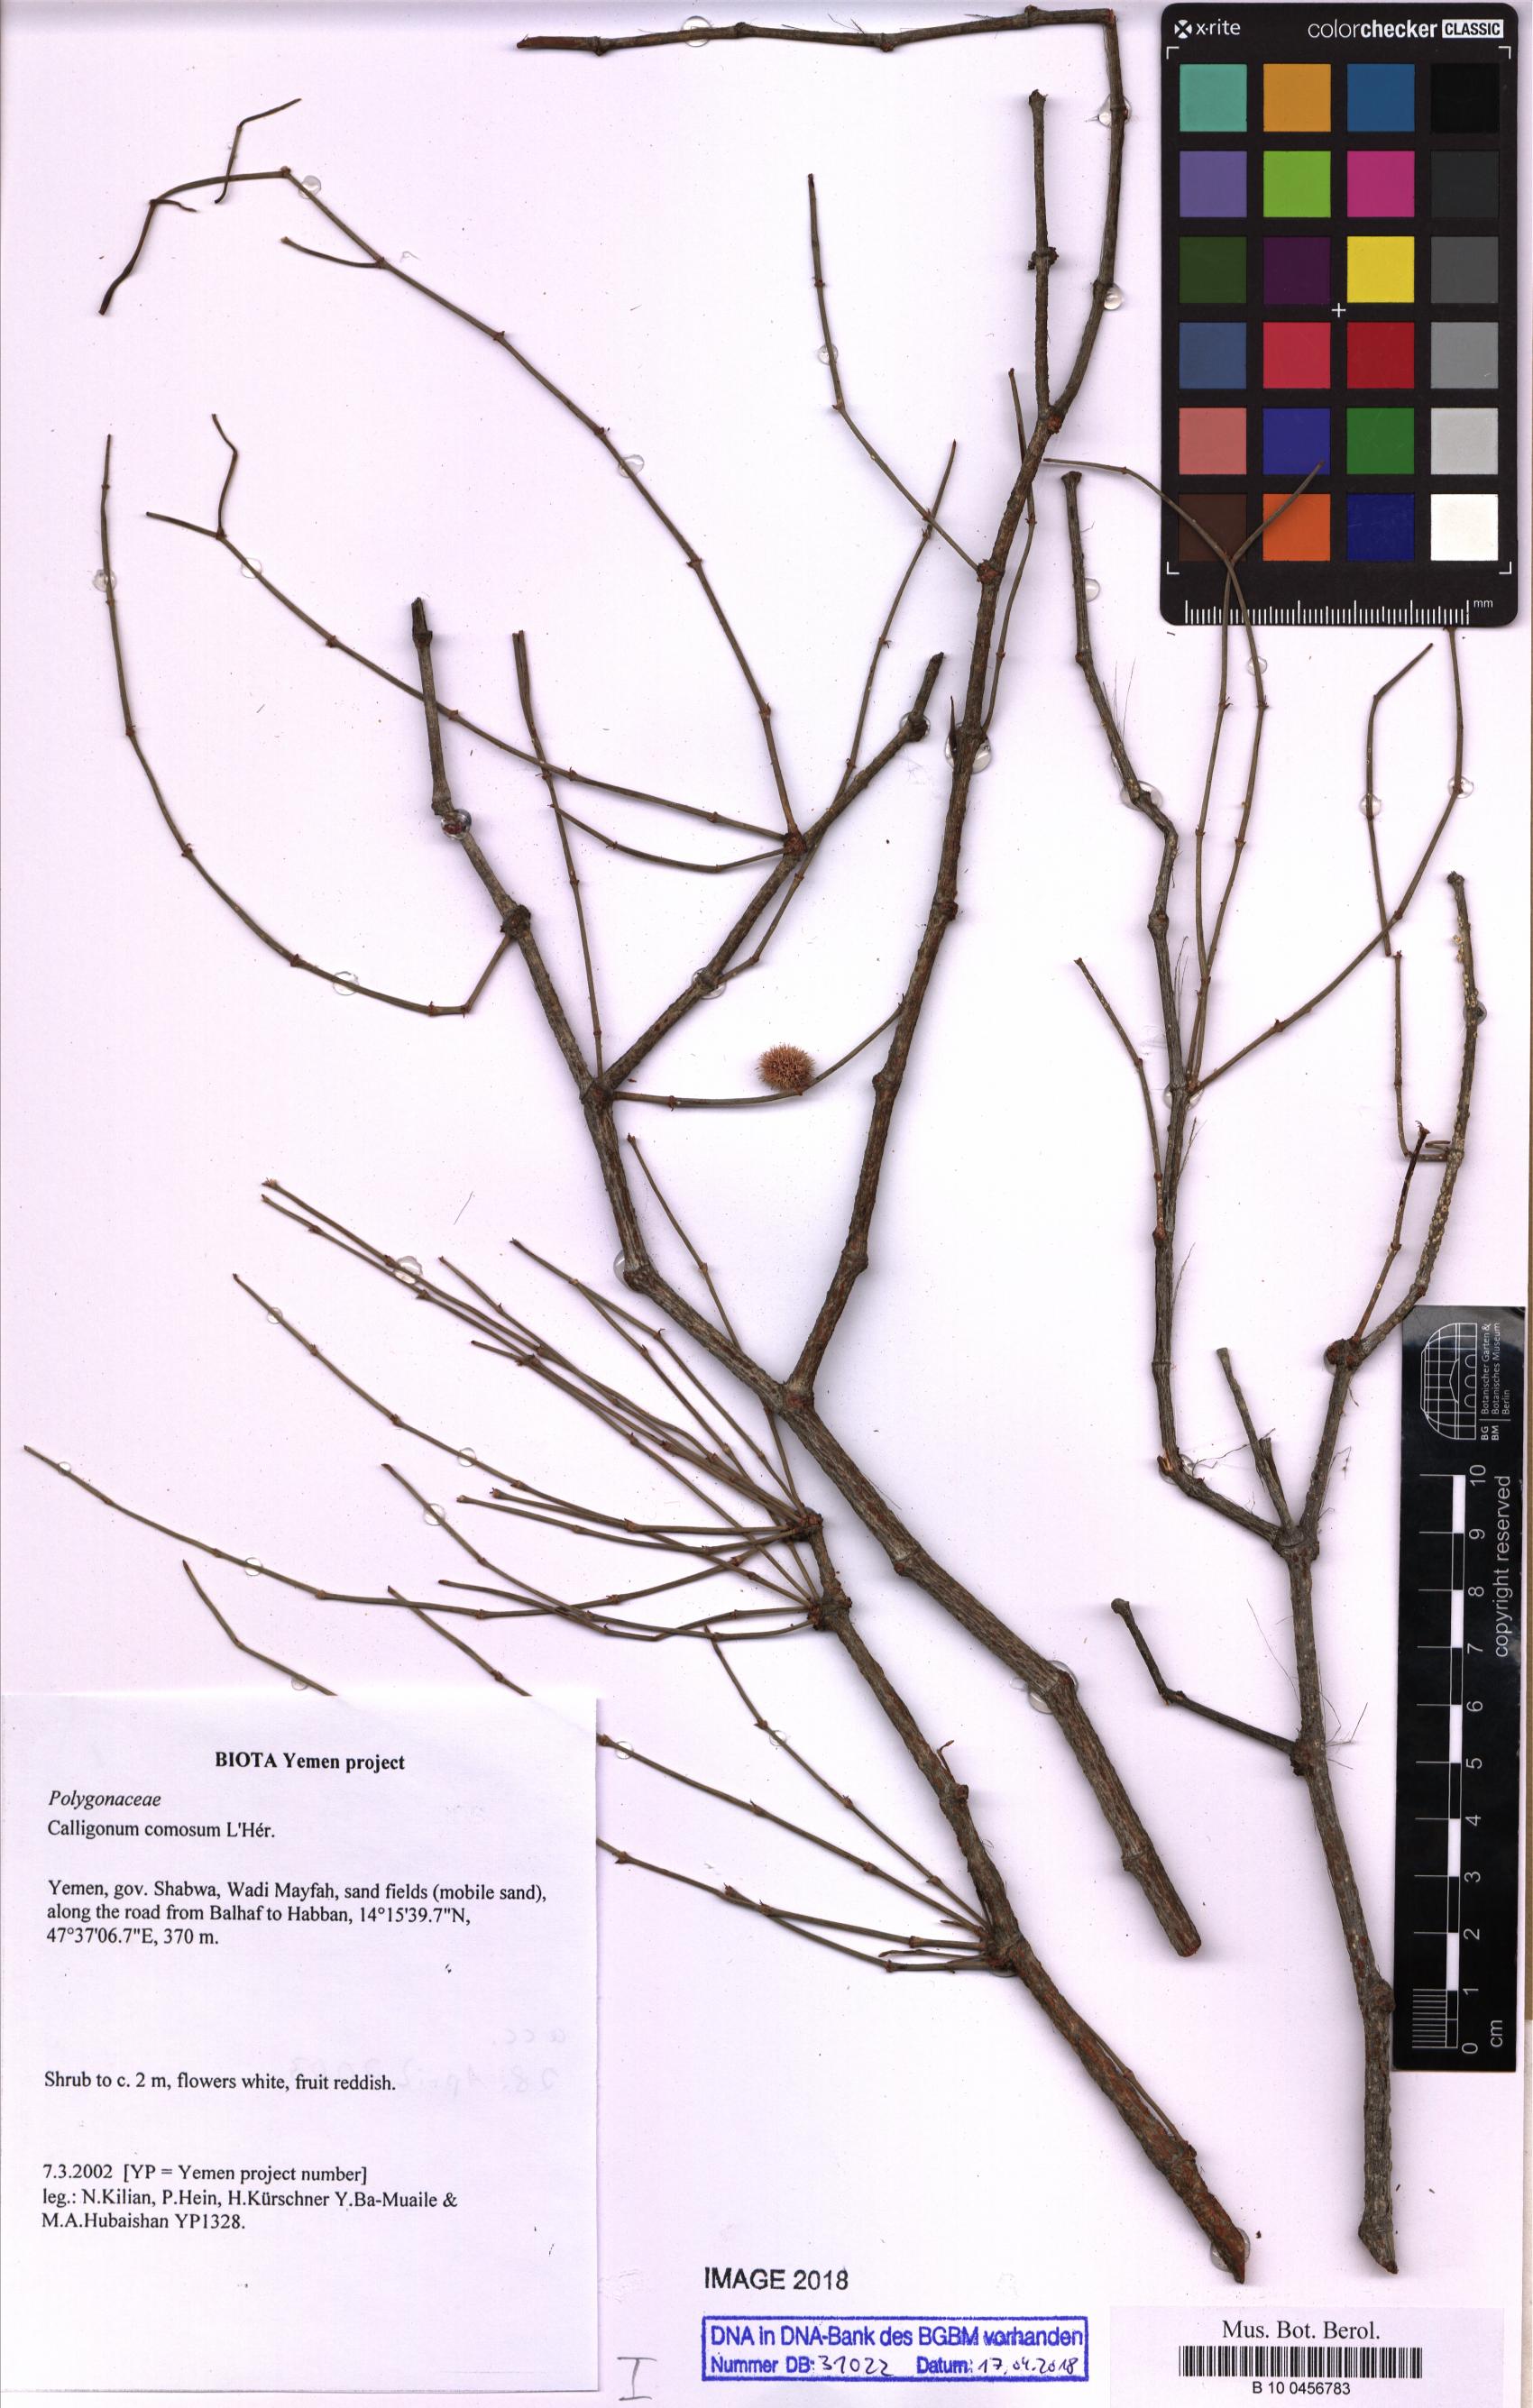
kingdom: Plantae
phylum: Tracheophyta
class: Magnoliopsida
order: Caryophyllales
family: Polygonaceae
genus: Calligonum
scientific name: Calligonum comosum
